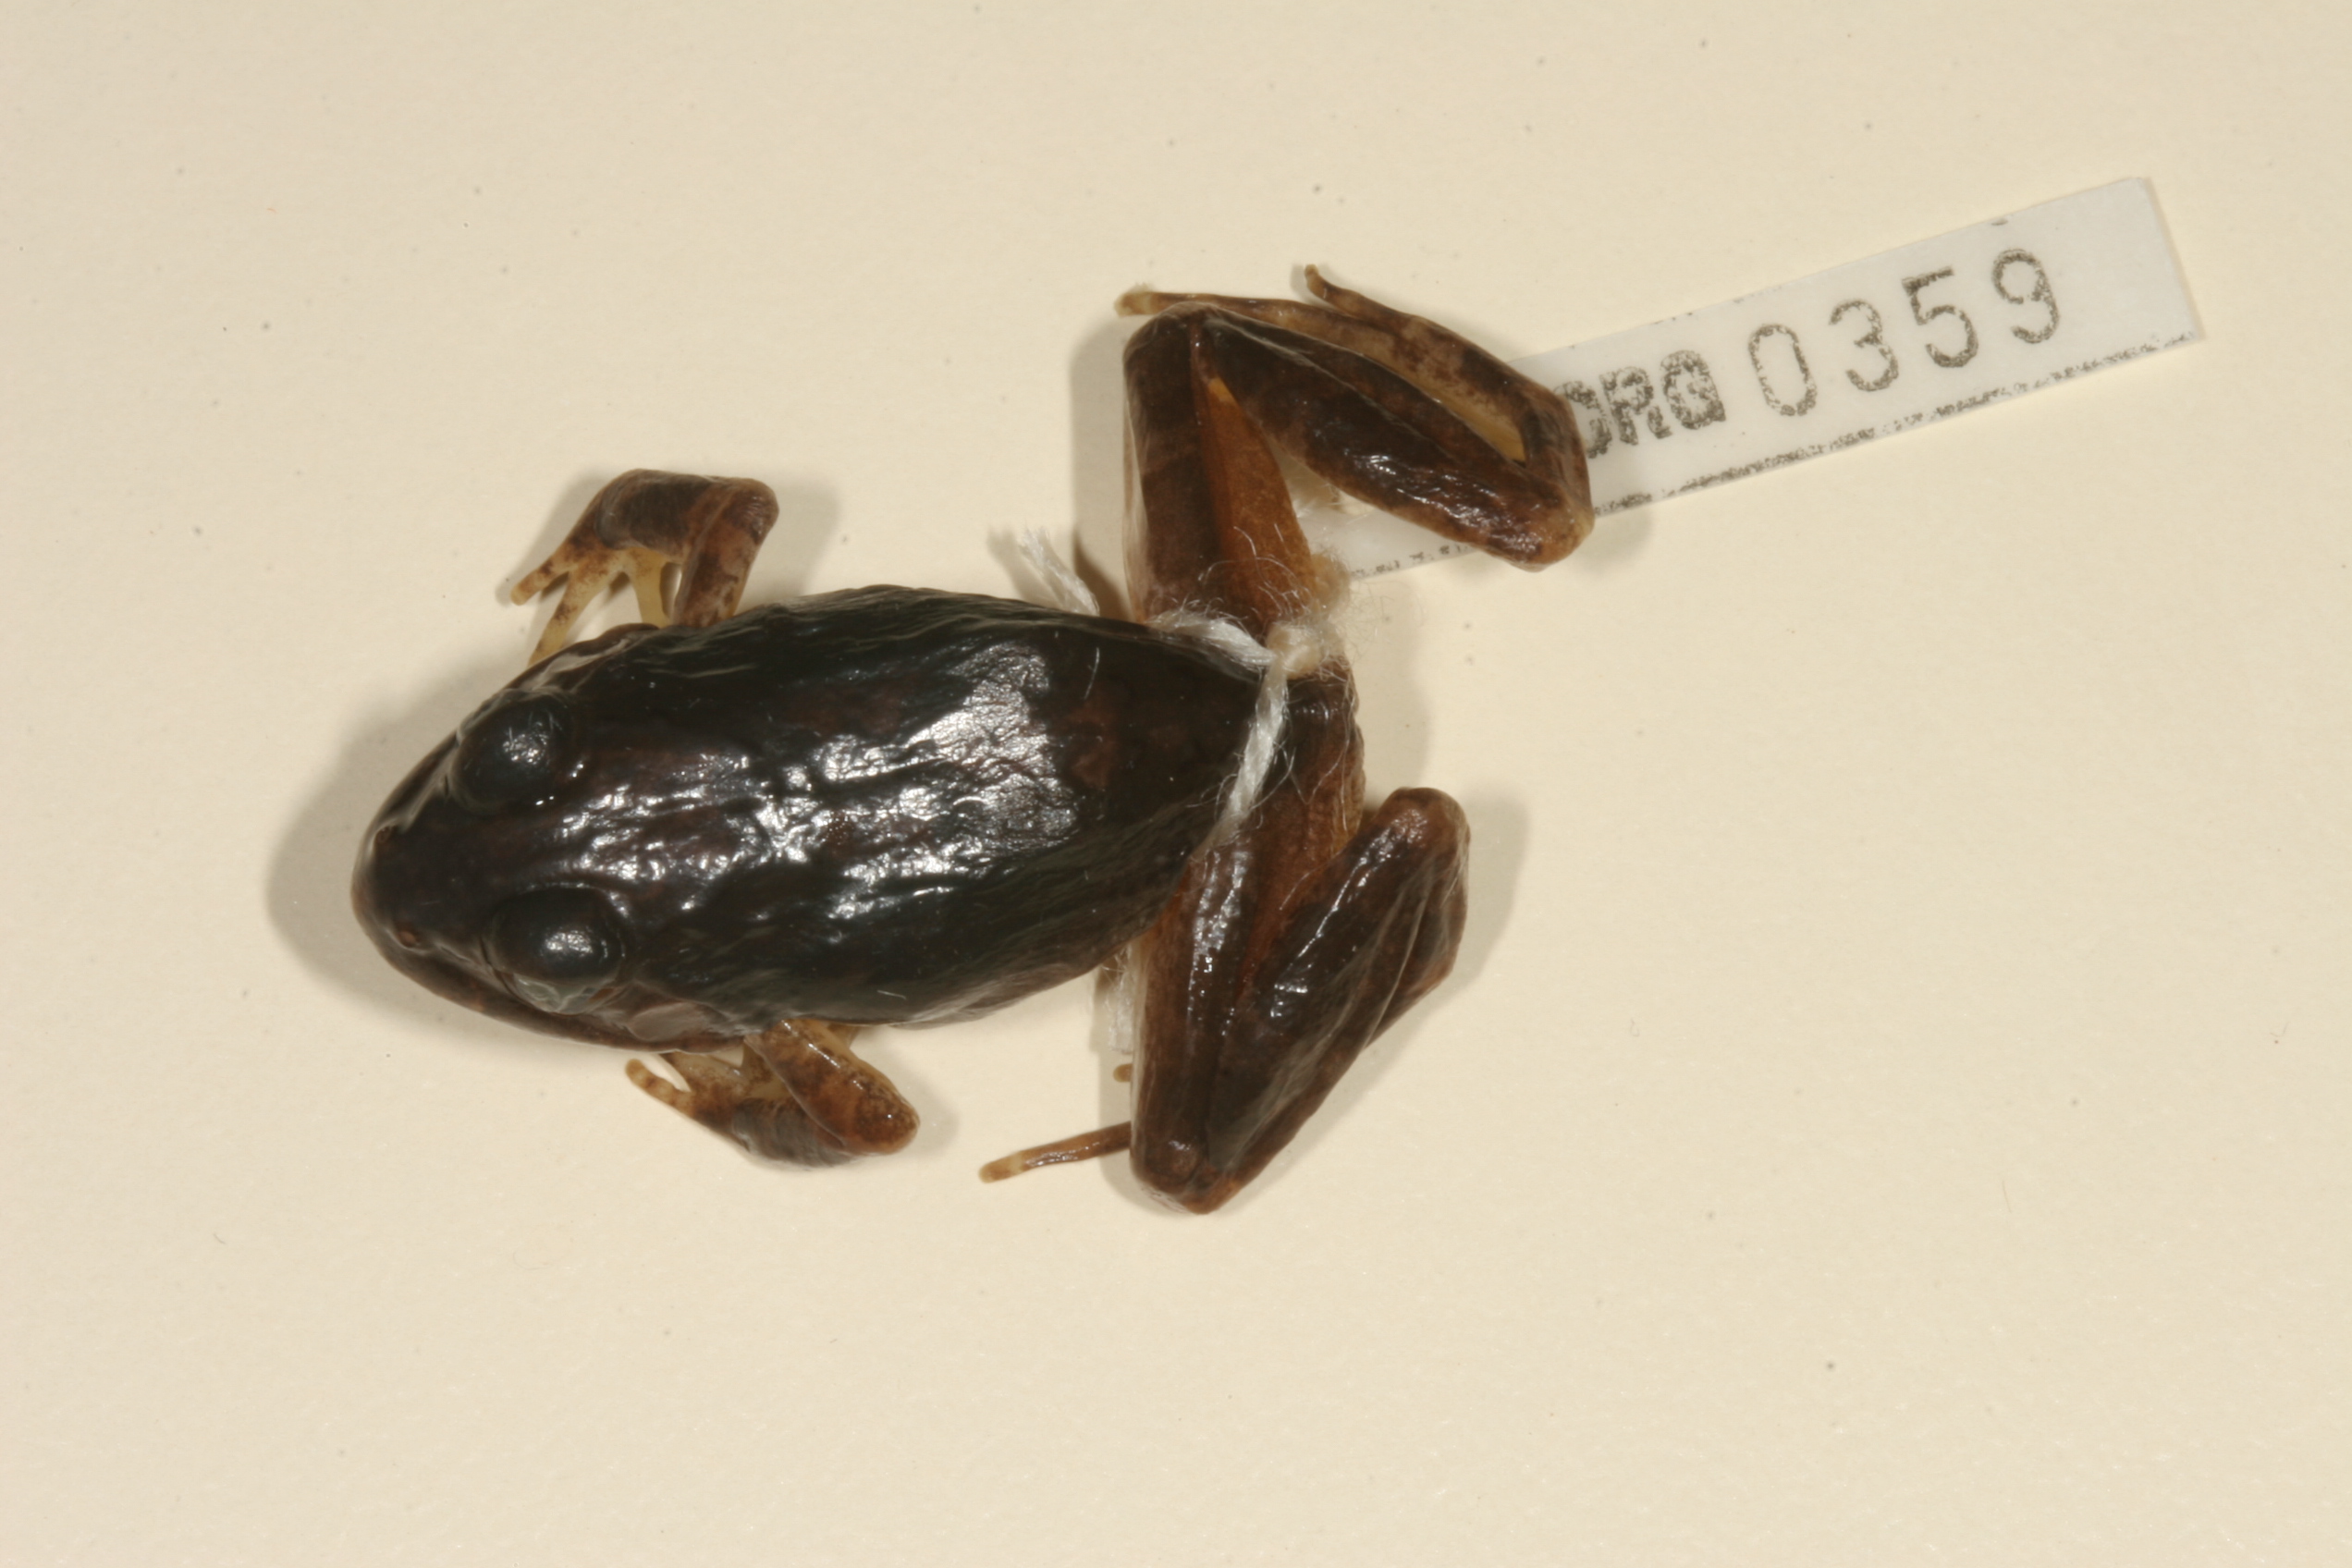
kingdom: Animalia
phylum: Chordata
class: Amphibia
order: Anura
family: Pyxicephalidae
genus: Tomopterna
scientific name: Tomopterna natalensis
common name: Natal sand frog
